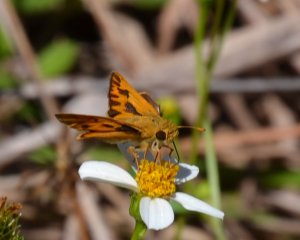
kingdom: Animalia
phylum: Arthropoda
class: Insecta
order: Lepidoptera
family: Hesperiidae
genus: Hylephila
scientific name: Hylephila phyleus
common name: Fiery Skipper
